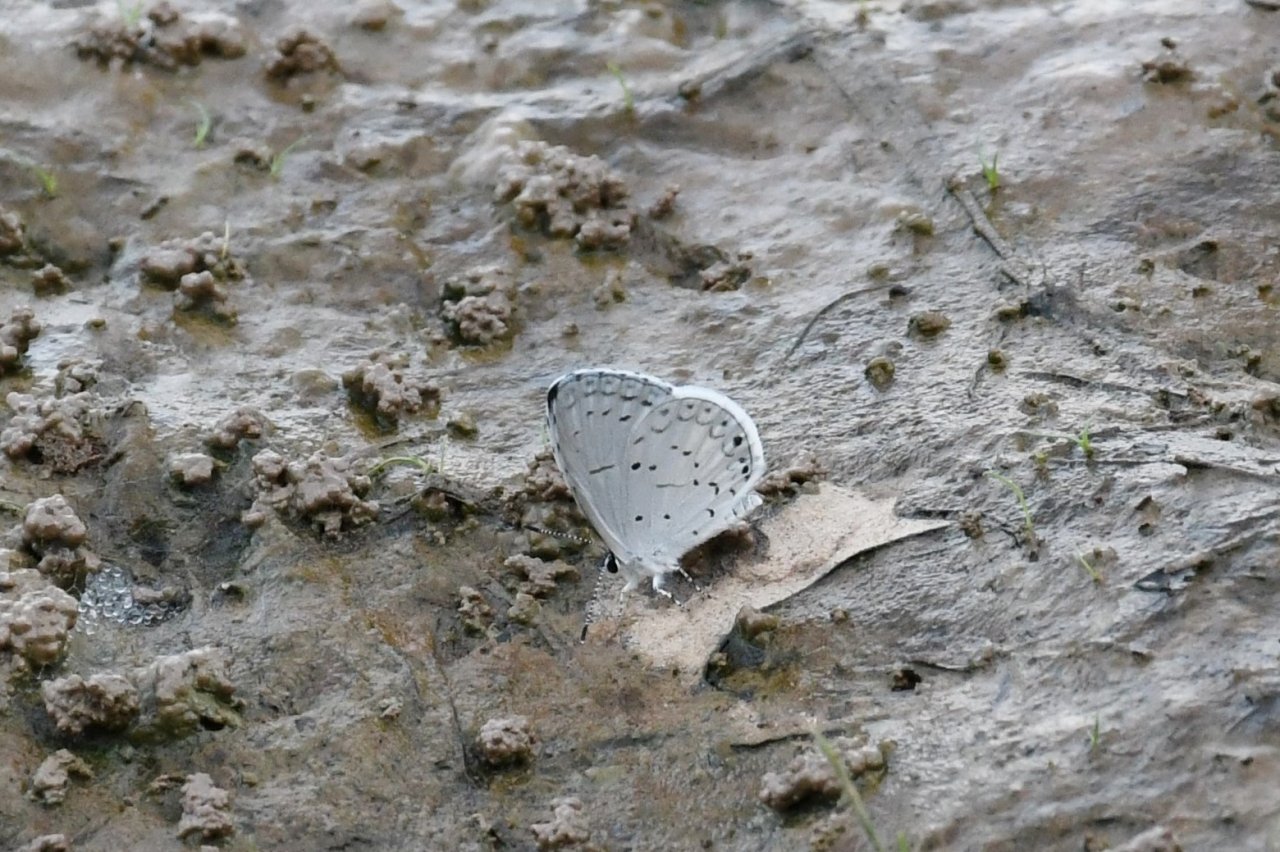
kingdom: Animalia
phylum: Arthropoda
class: Insecta
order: Lepidoptera
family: Lycaenidae
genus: Cyaniris
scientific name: Cyaniris neglecta
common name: Summer Azure
